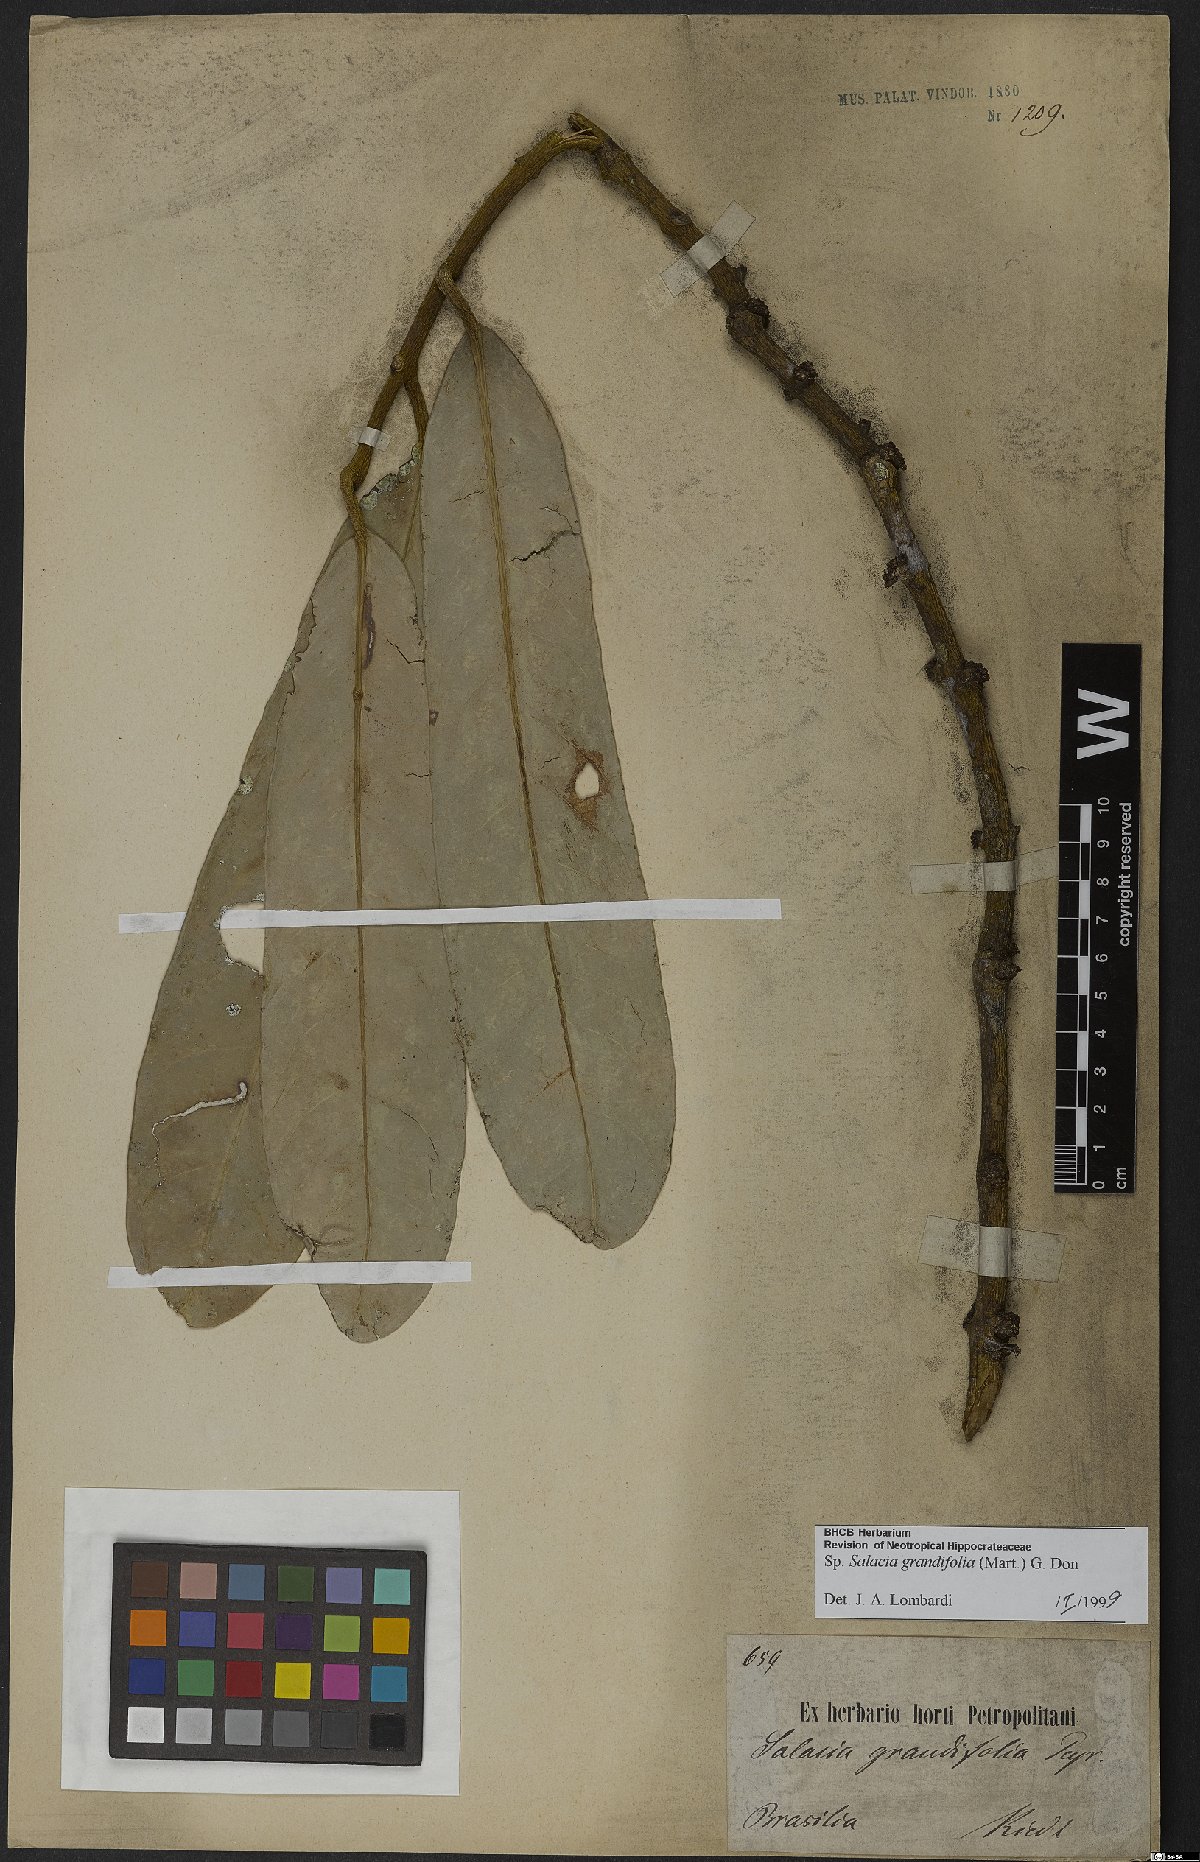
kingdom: Plantae
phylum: Tracheophyta
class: Magnoliopsida
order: Celastrales
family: Celastraceae
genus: Salacia
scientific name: Salacia grandifolia
